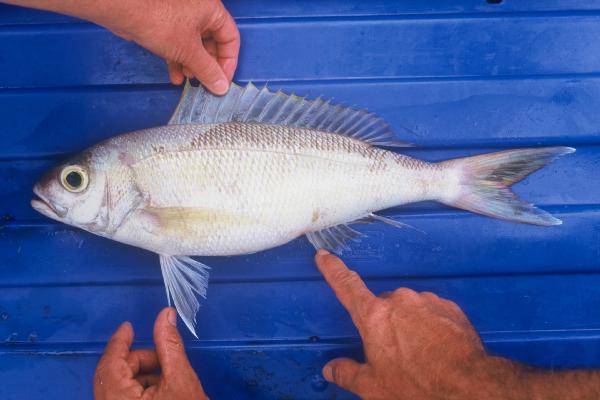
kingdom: Animalia
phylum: Chordata
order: Perciformes
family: Lutjanidae
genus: Pristipomoides
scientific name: Pristipomoides sieboldii
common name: Jobfish
